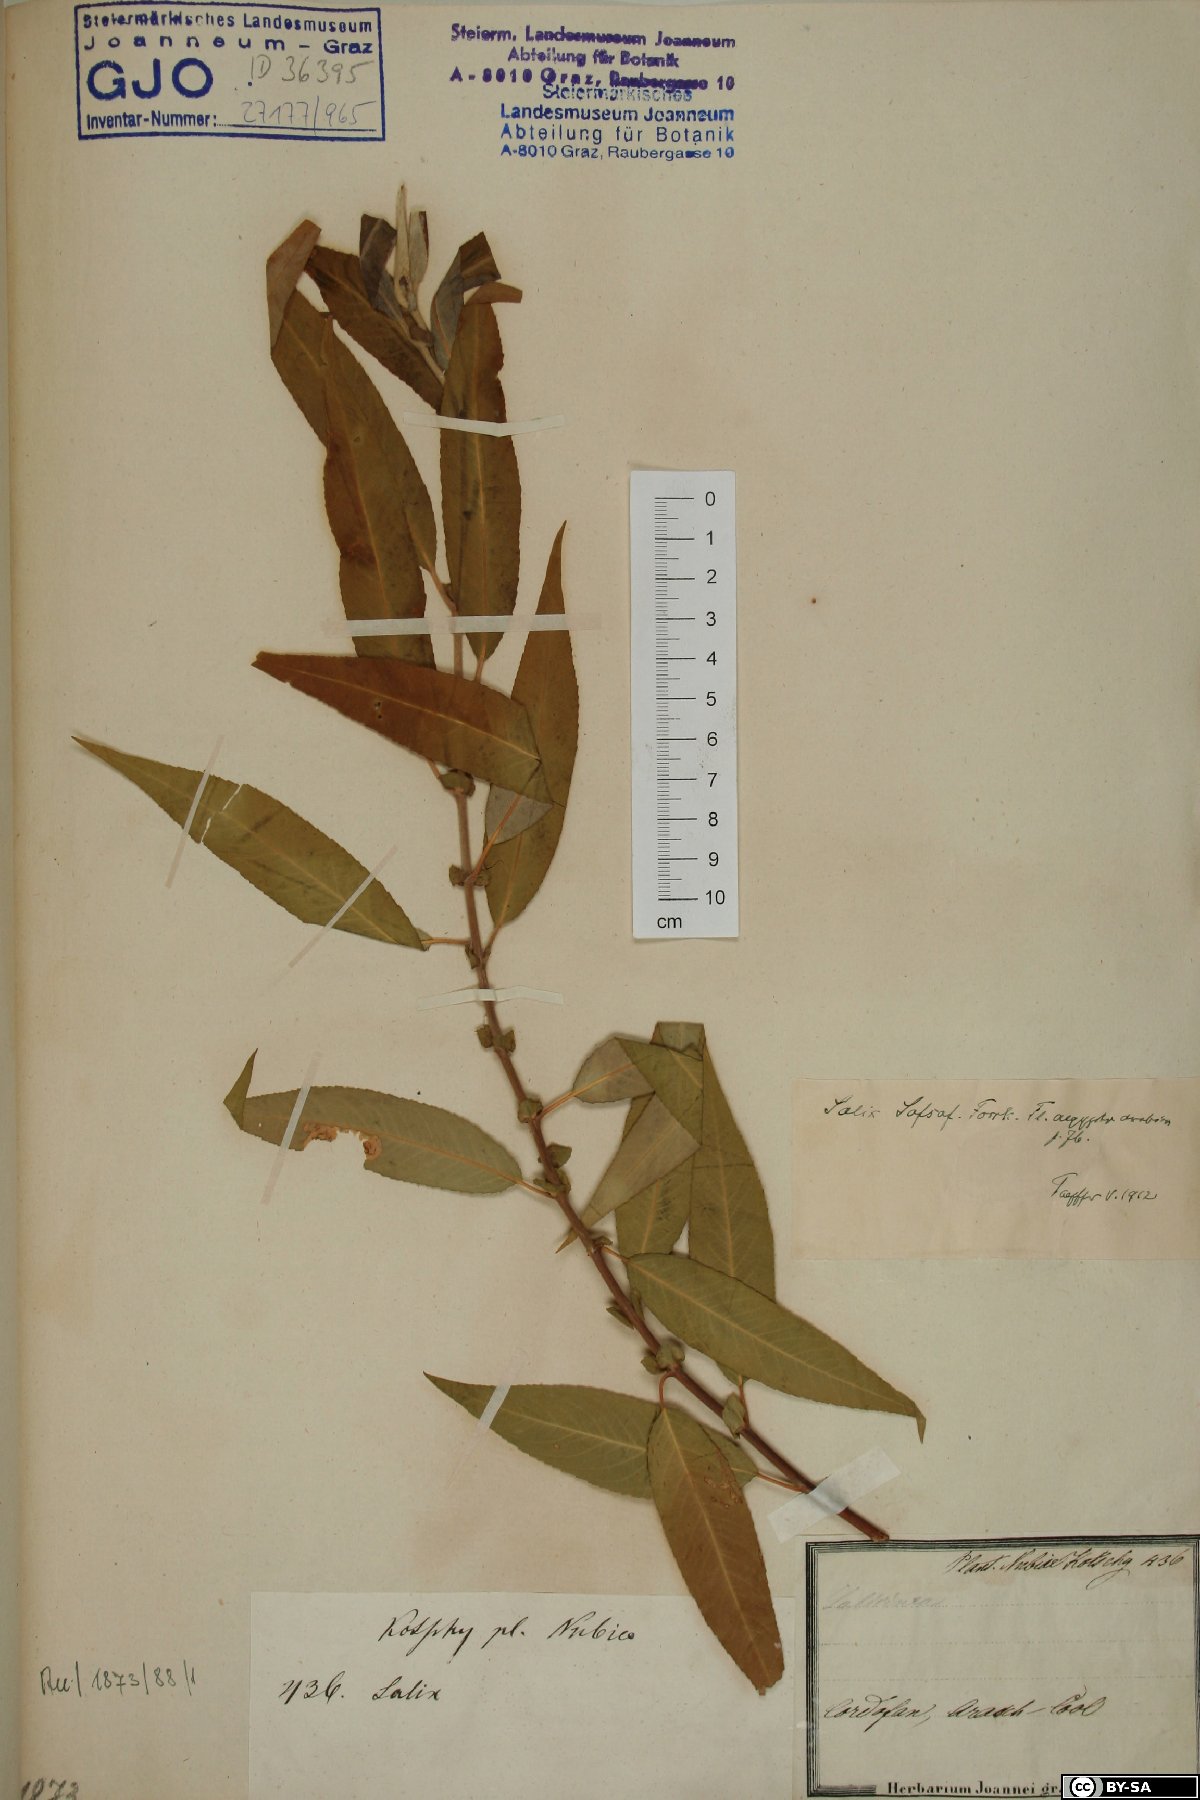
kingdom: Plantae
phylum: Tracheophyta
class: Magnoliopsida
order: Malpighiales
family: Salicaceae
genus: Salix
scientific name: Salix mucronata
